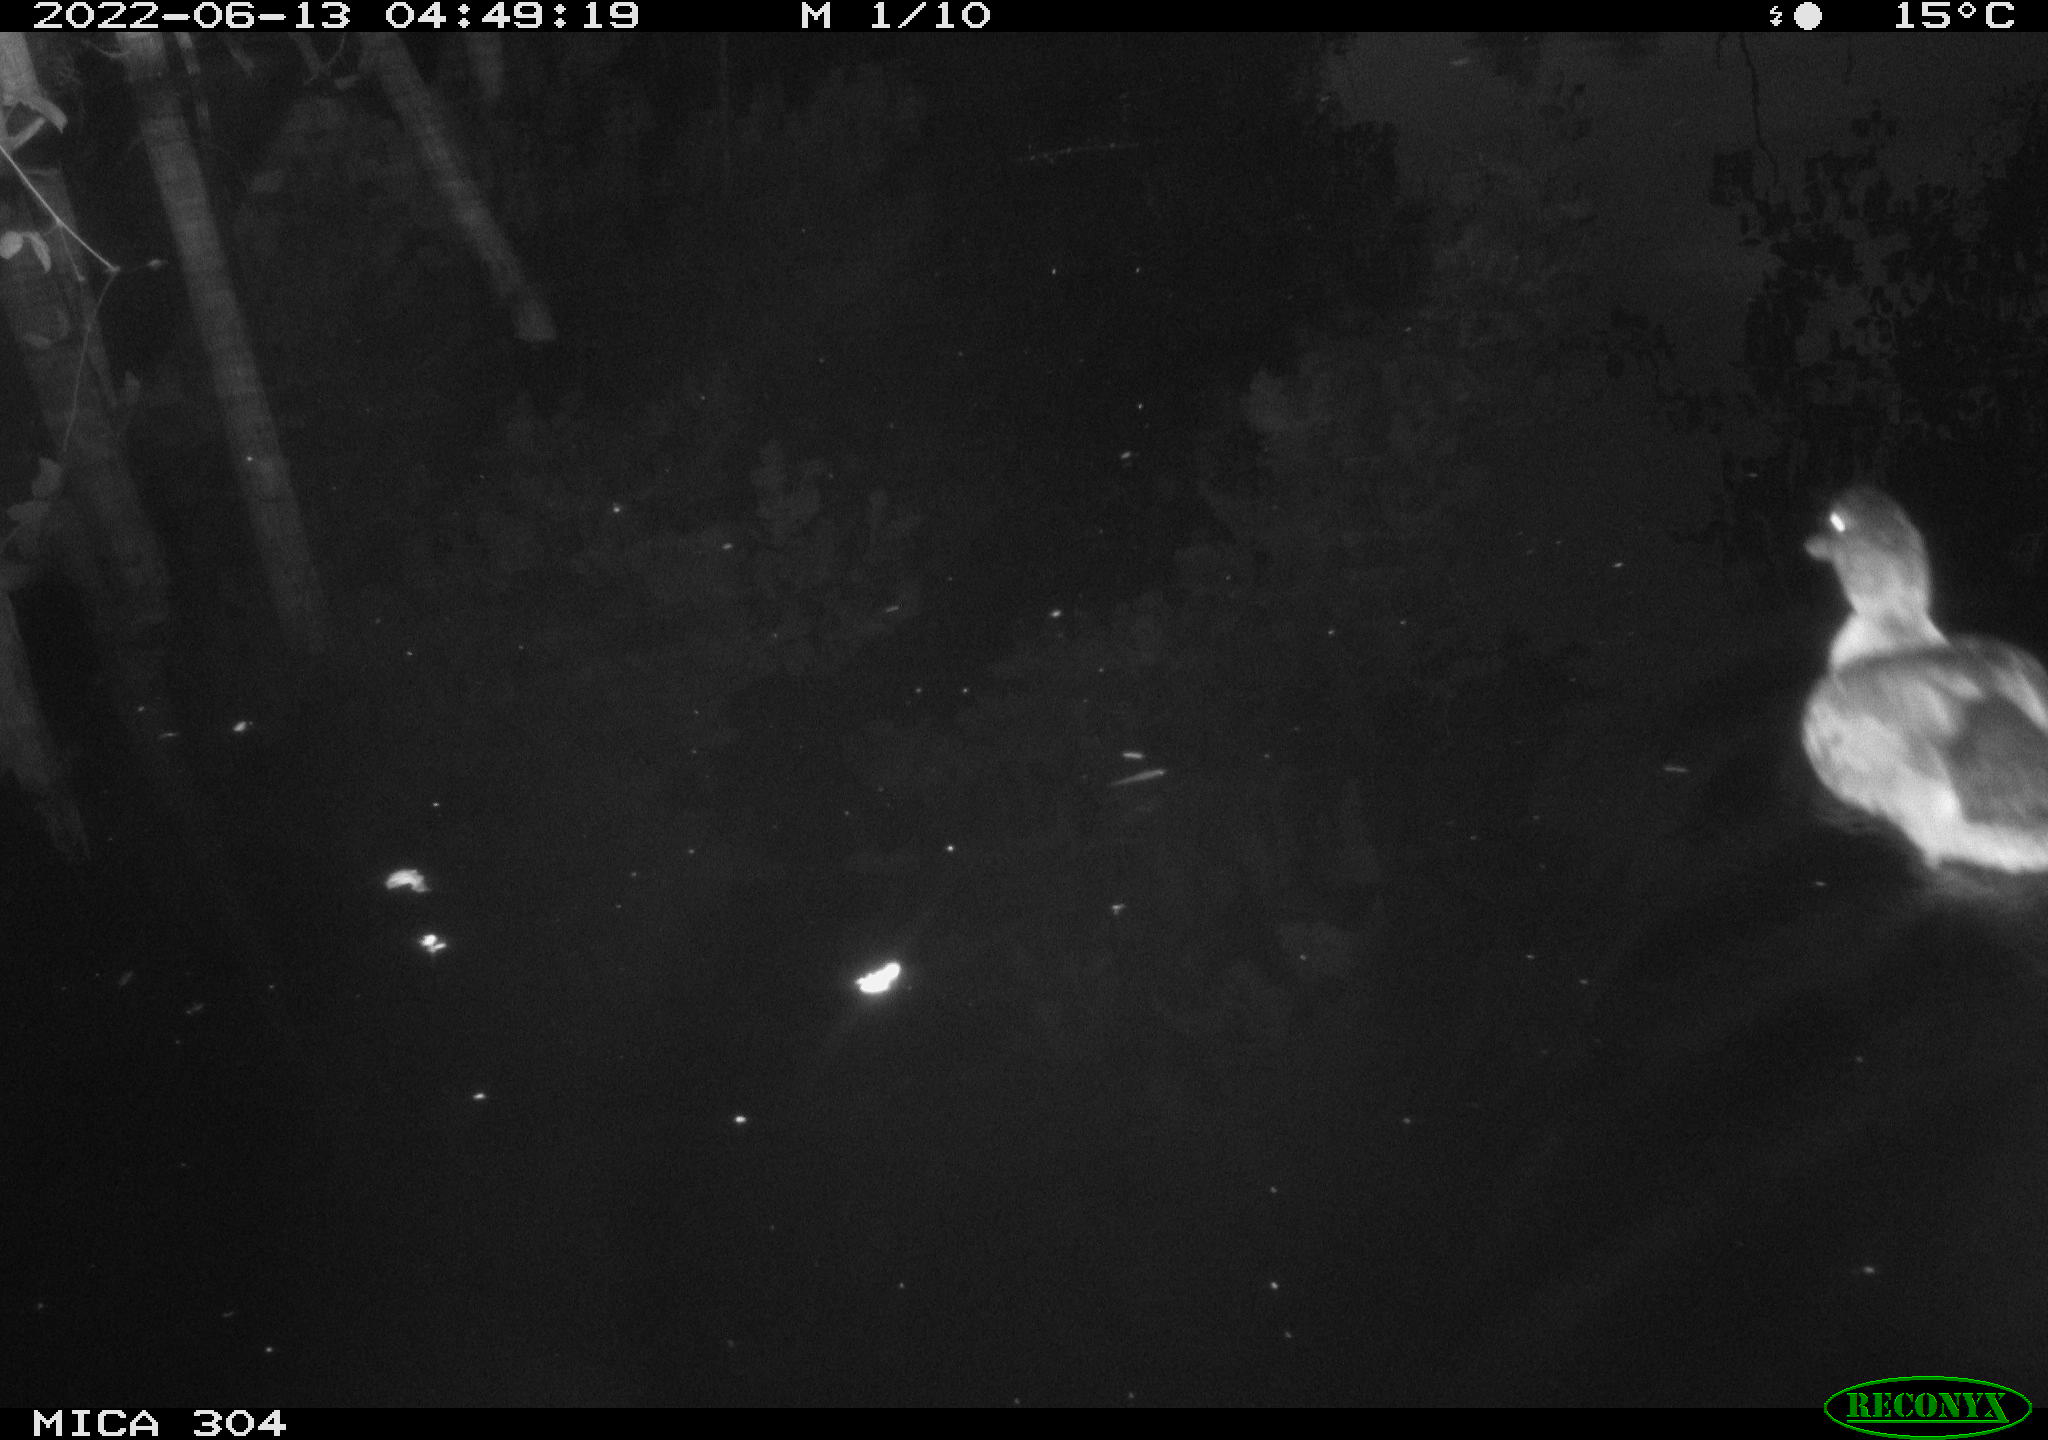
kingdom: Animalia
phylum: Chordata
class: Aves
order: Anseriformes
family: Anatidae
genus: Anas
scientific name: Anas platyrhynchos
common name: Mallard
